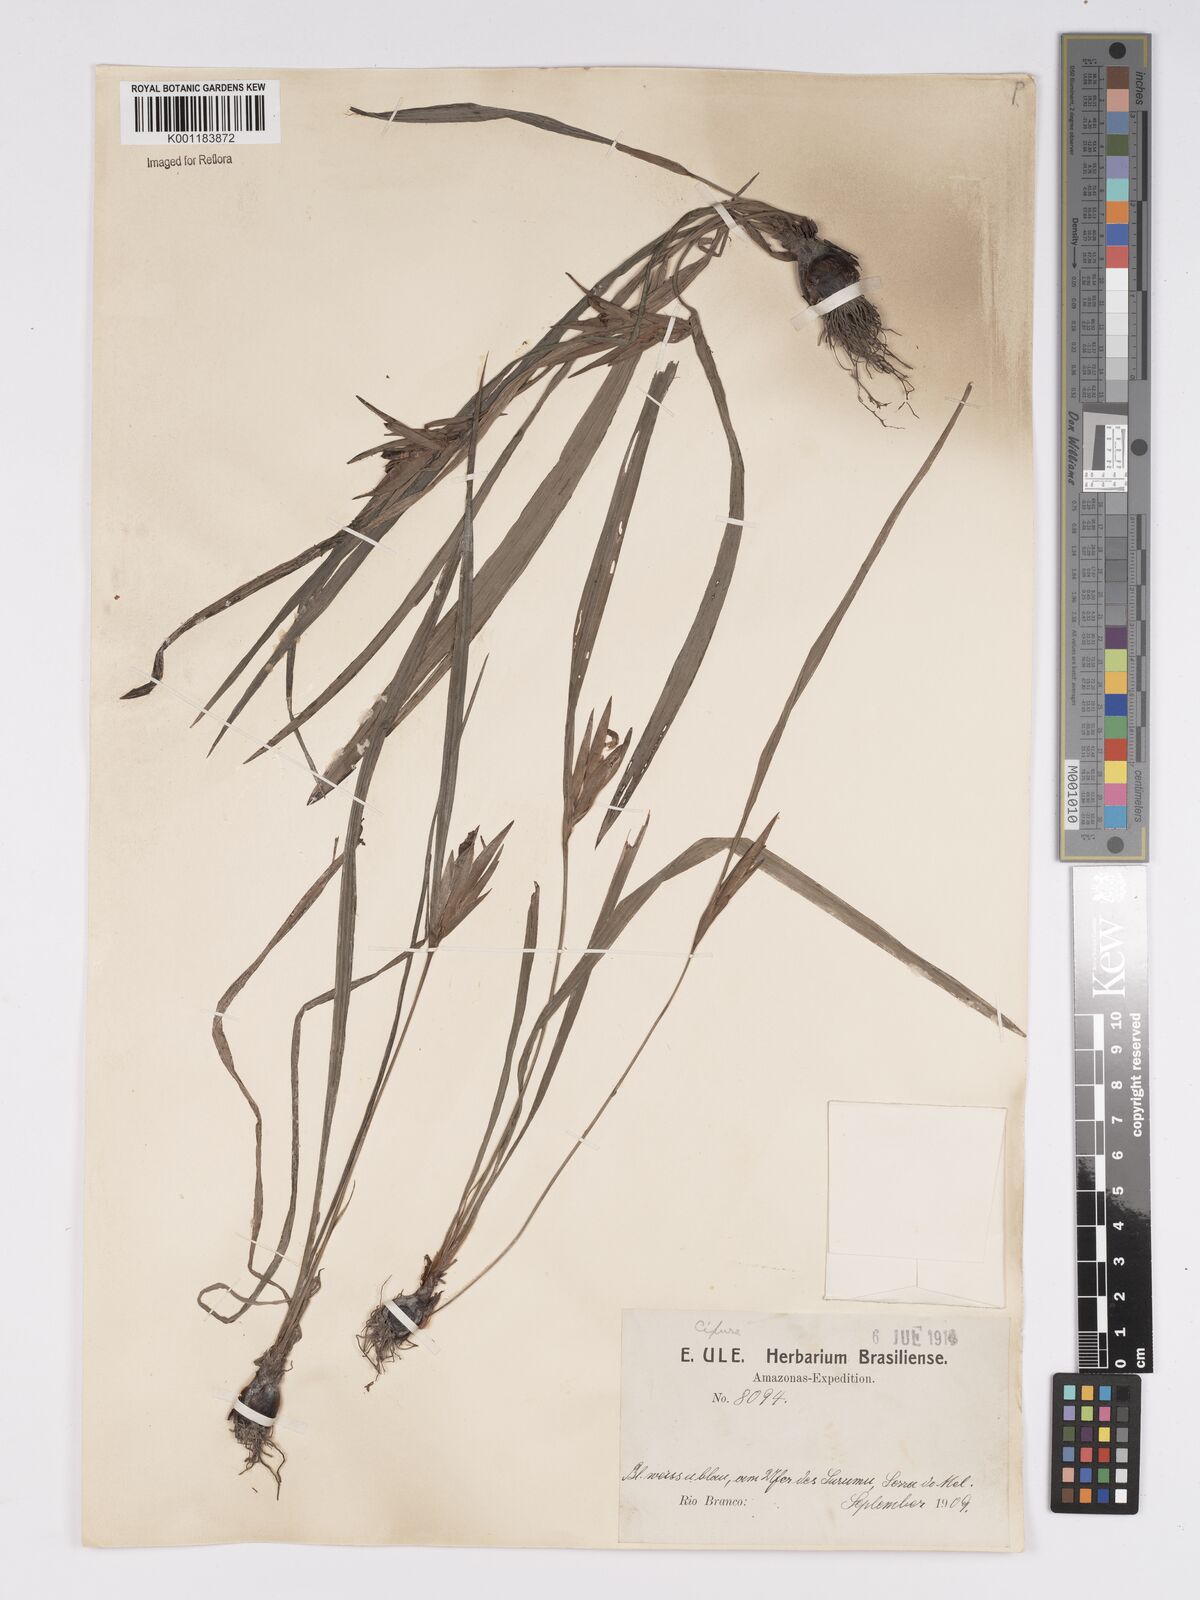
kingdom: Plantae
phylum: Tracheophyta
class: Liliopsida
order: Asparagales
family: Iridaceae
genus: Cipura
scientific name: Cipura paludosa
